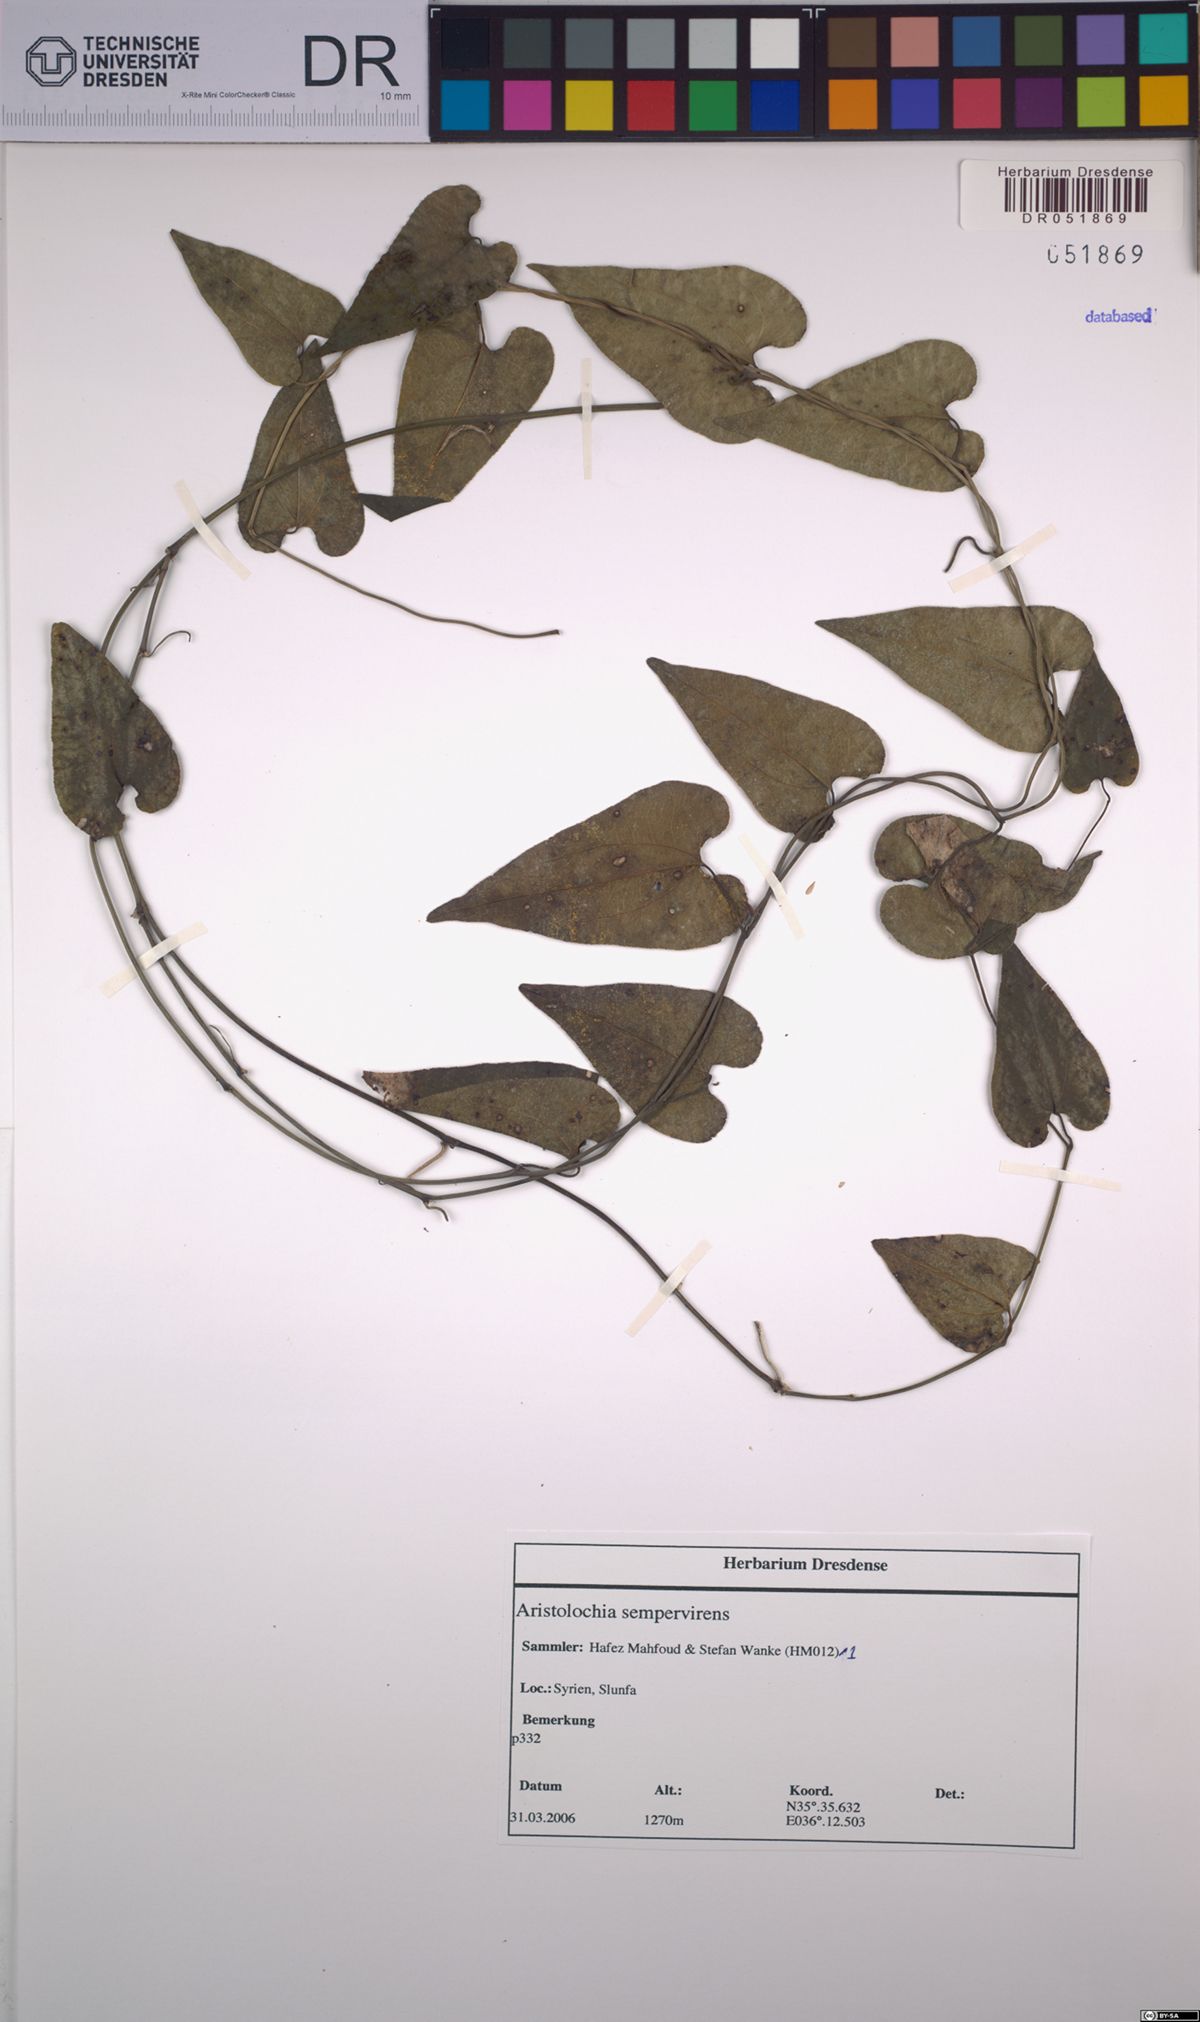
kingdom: Plantae
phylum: Tracheophyta
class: Magnoliopsida
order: Piperales
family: Aristolochiaceae
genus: Aristolochia
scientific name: Aristolochia sempervirens
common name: Long birthwort
